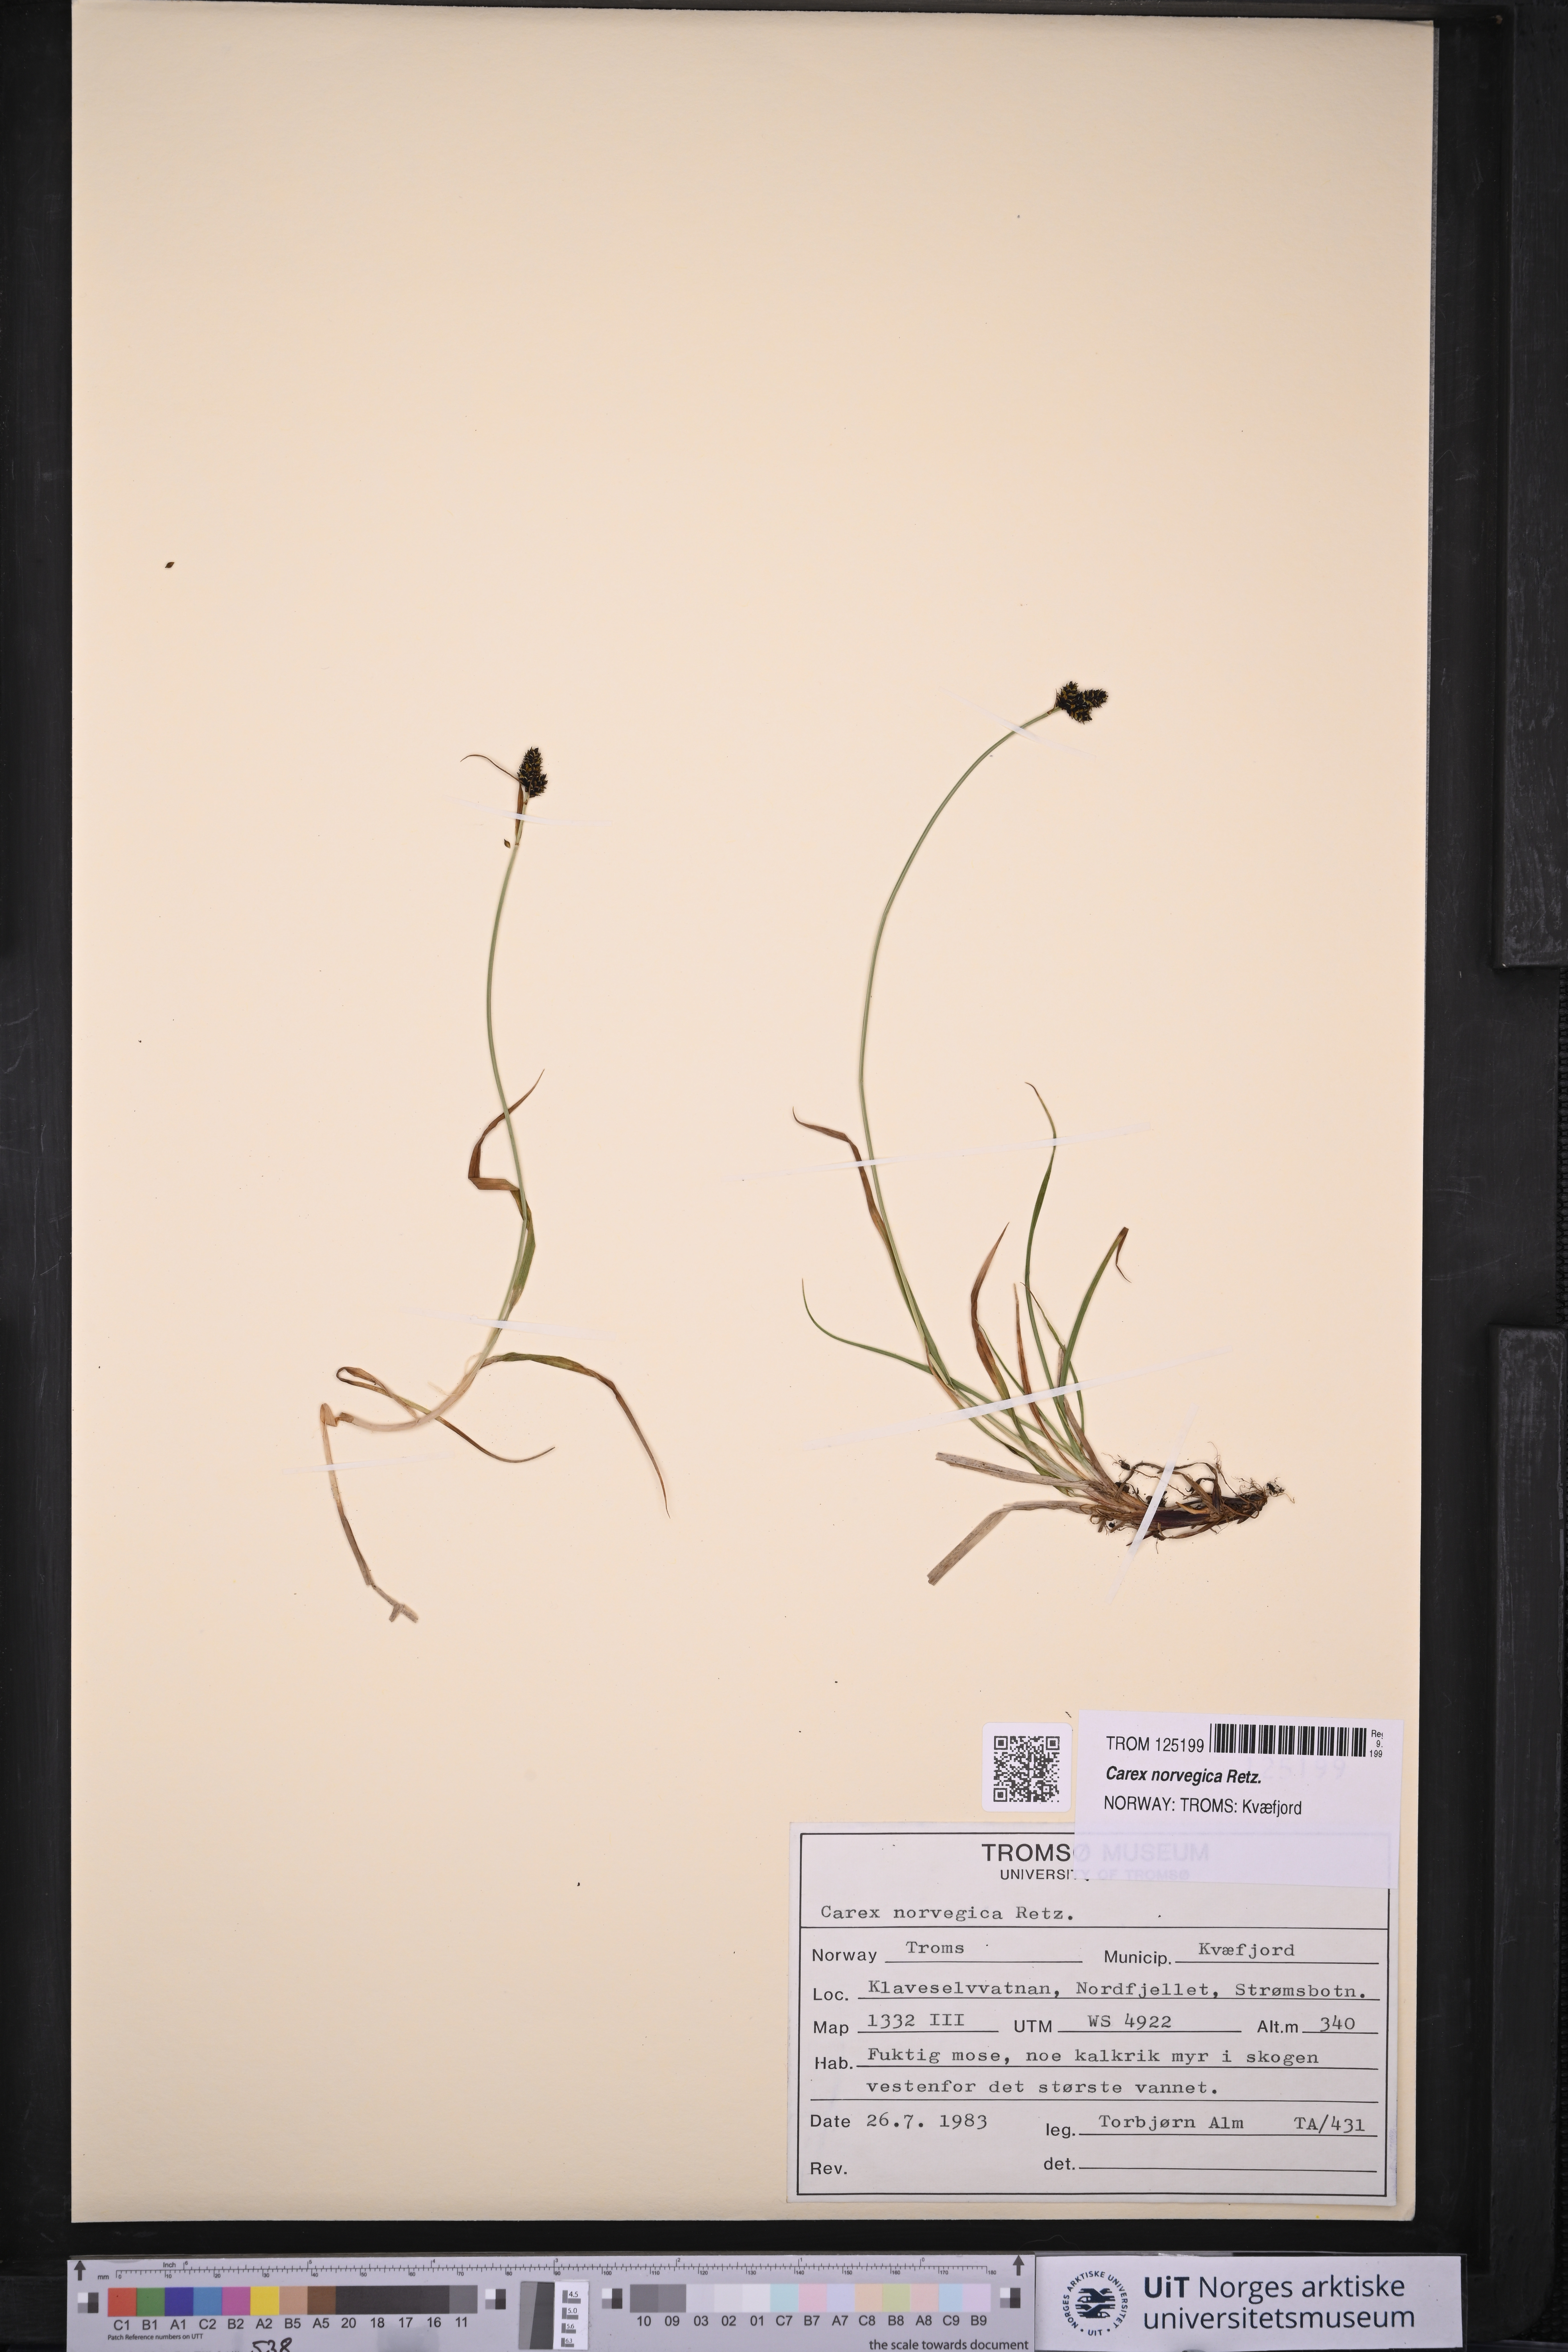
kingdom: Plantae
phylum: Tracheophyta
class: Liliopsida
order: Poales
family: Cyperaceae
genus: Carex
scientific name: Carex norvegica
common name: Close-headed alpine-sedge
